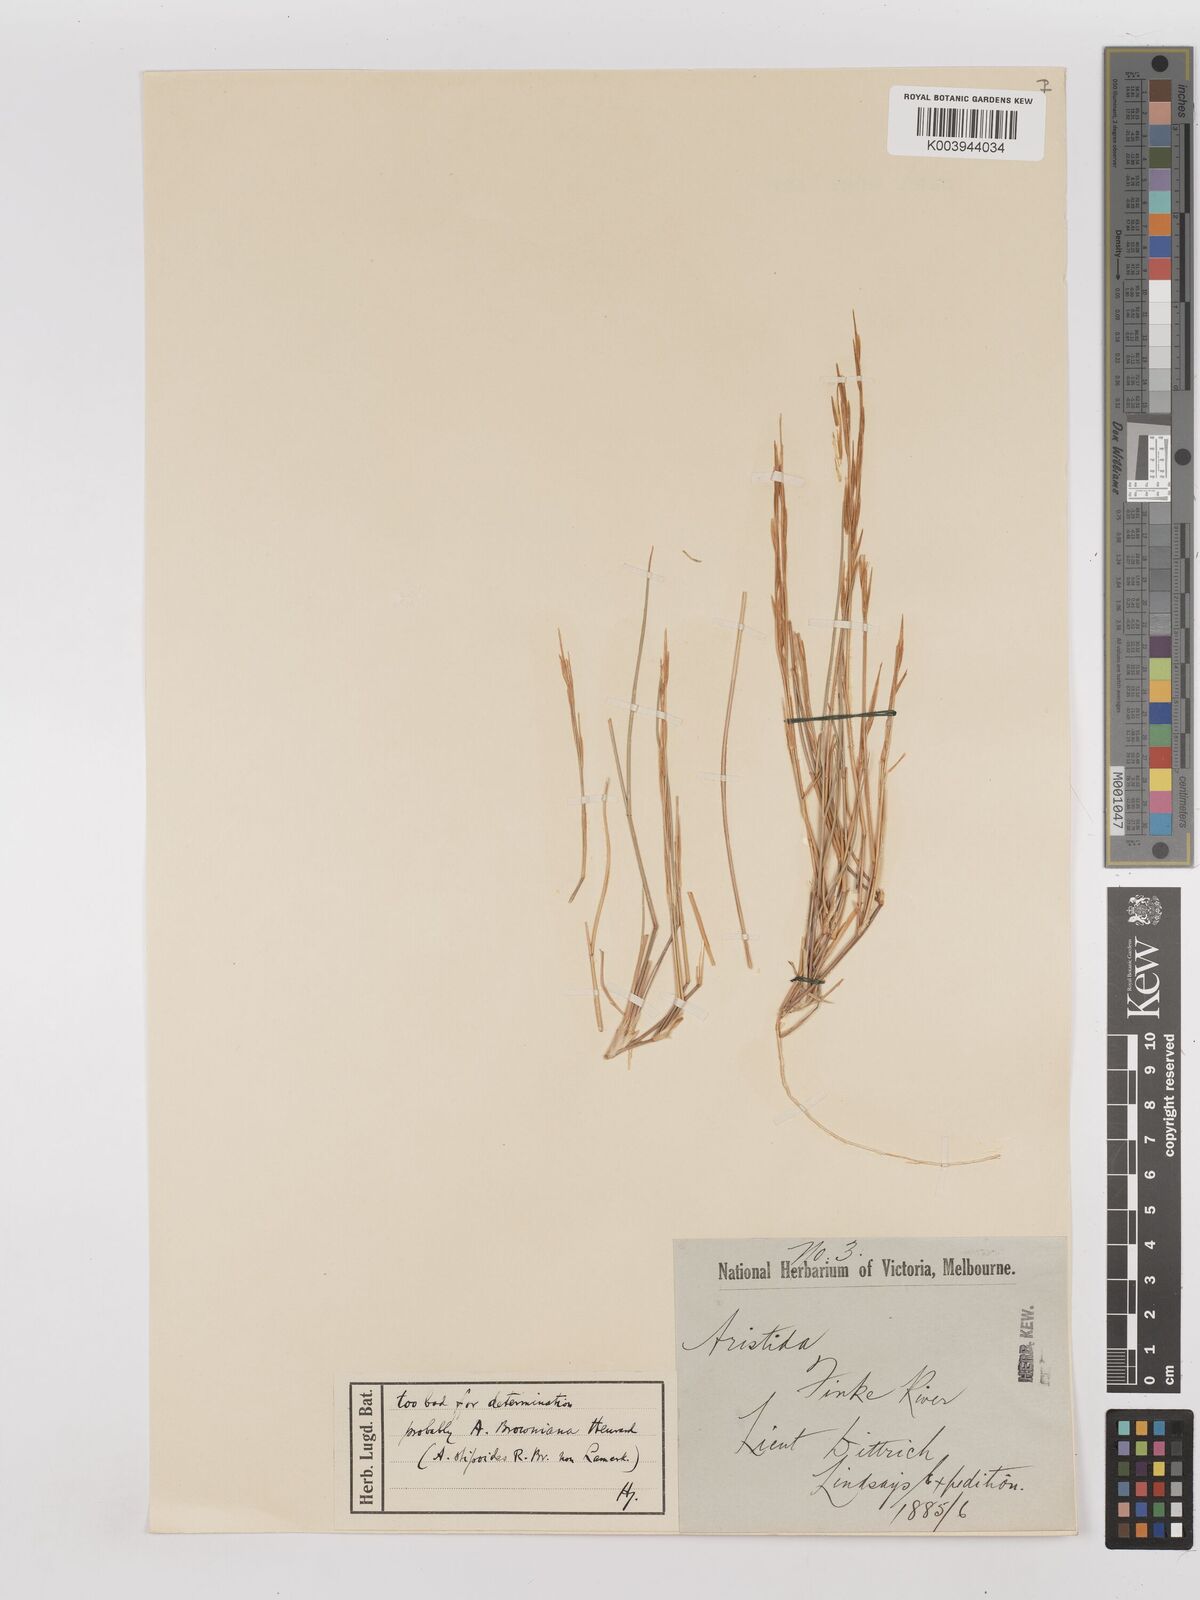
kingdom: Plantae
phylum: Tracheophyta
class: Liliopsida
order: Poales
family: Poaceae
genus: Aristida
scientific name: Aristida contorta
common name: Bunch kerosene grass
